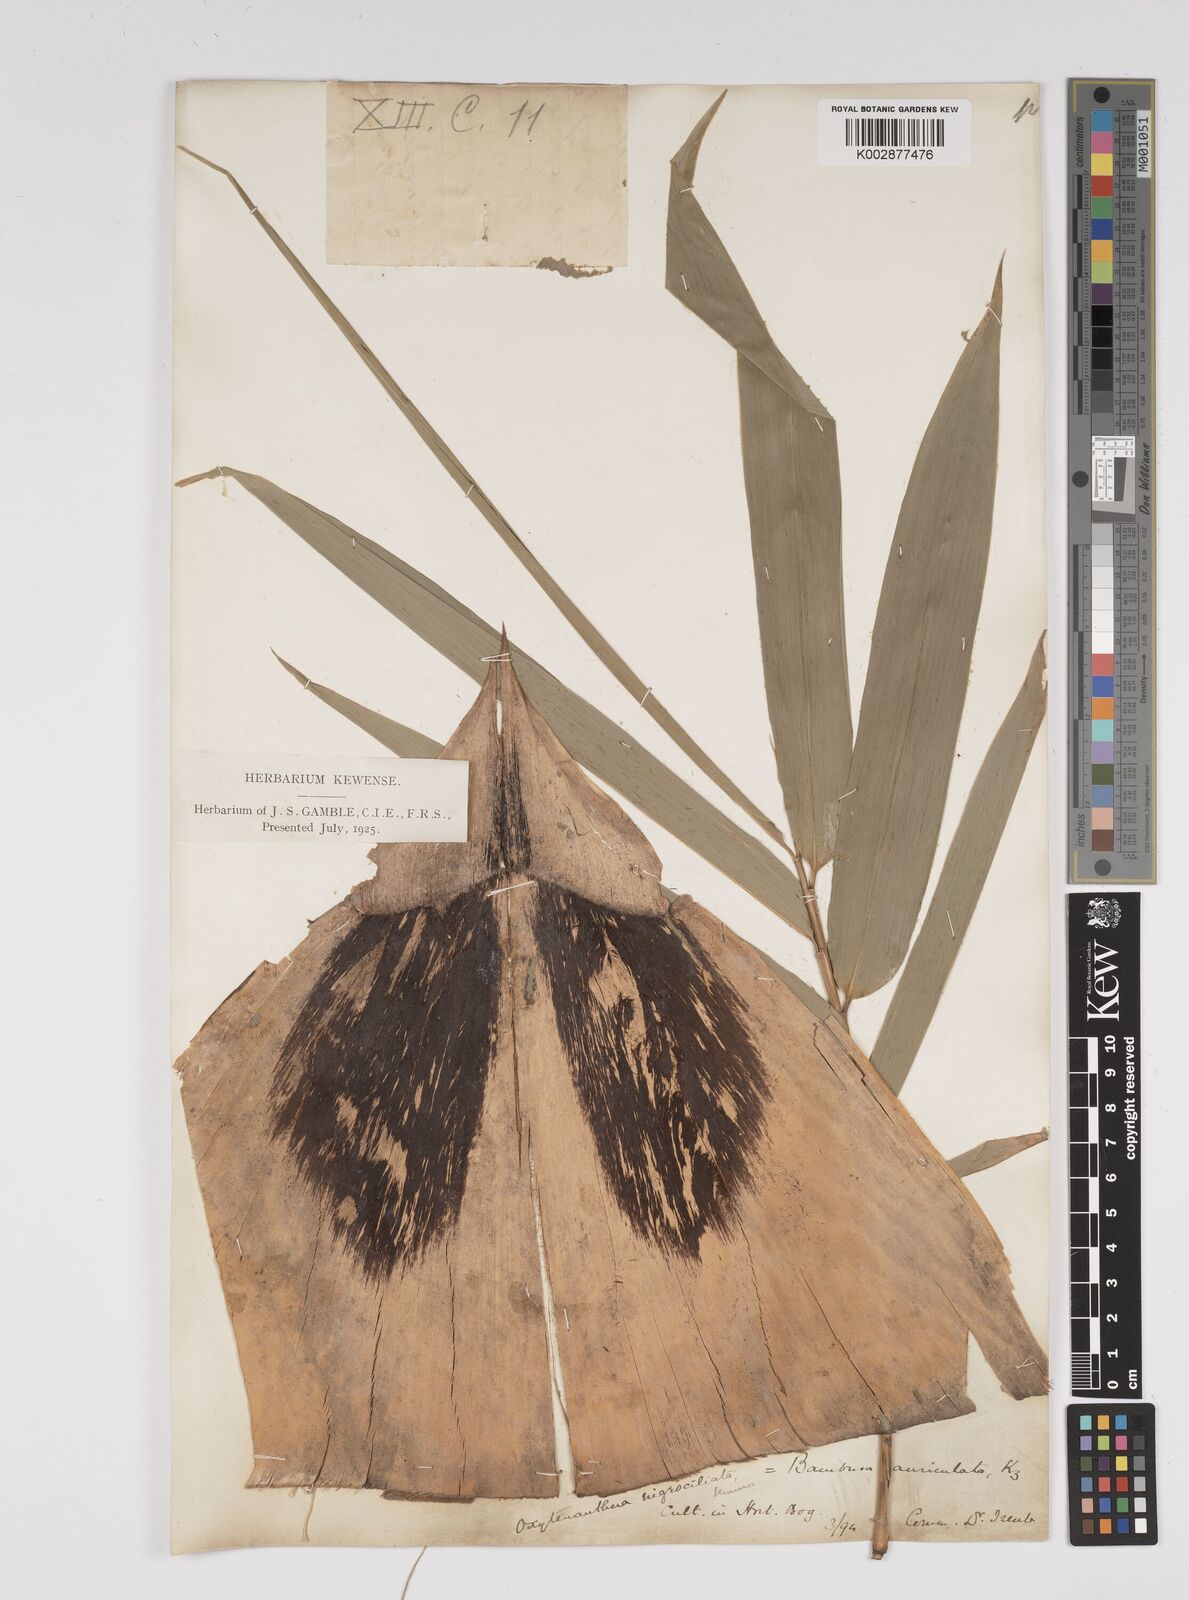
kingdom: Plantae
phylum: Tracheophyta
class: Liliopsida
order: Poales
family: Poaceae
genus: Bambusa
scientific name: Bambusa
